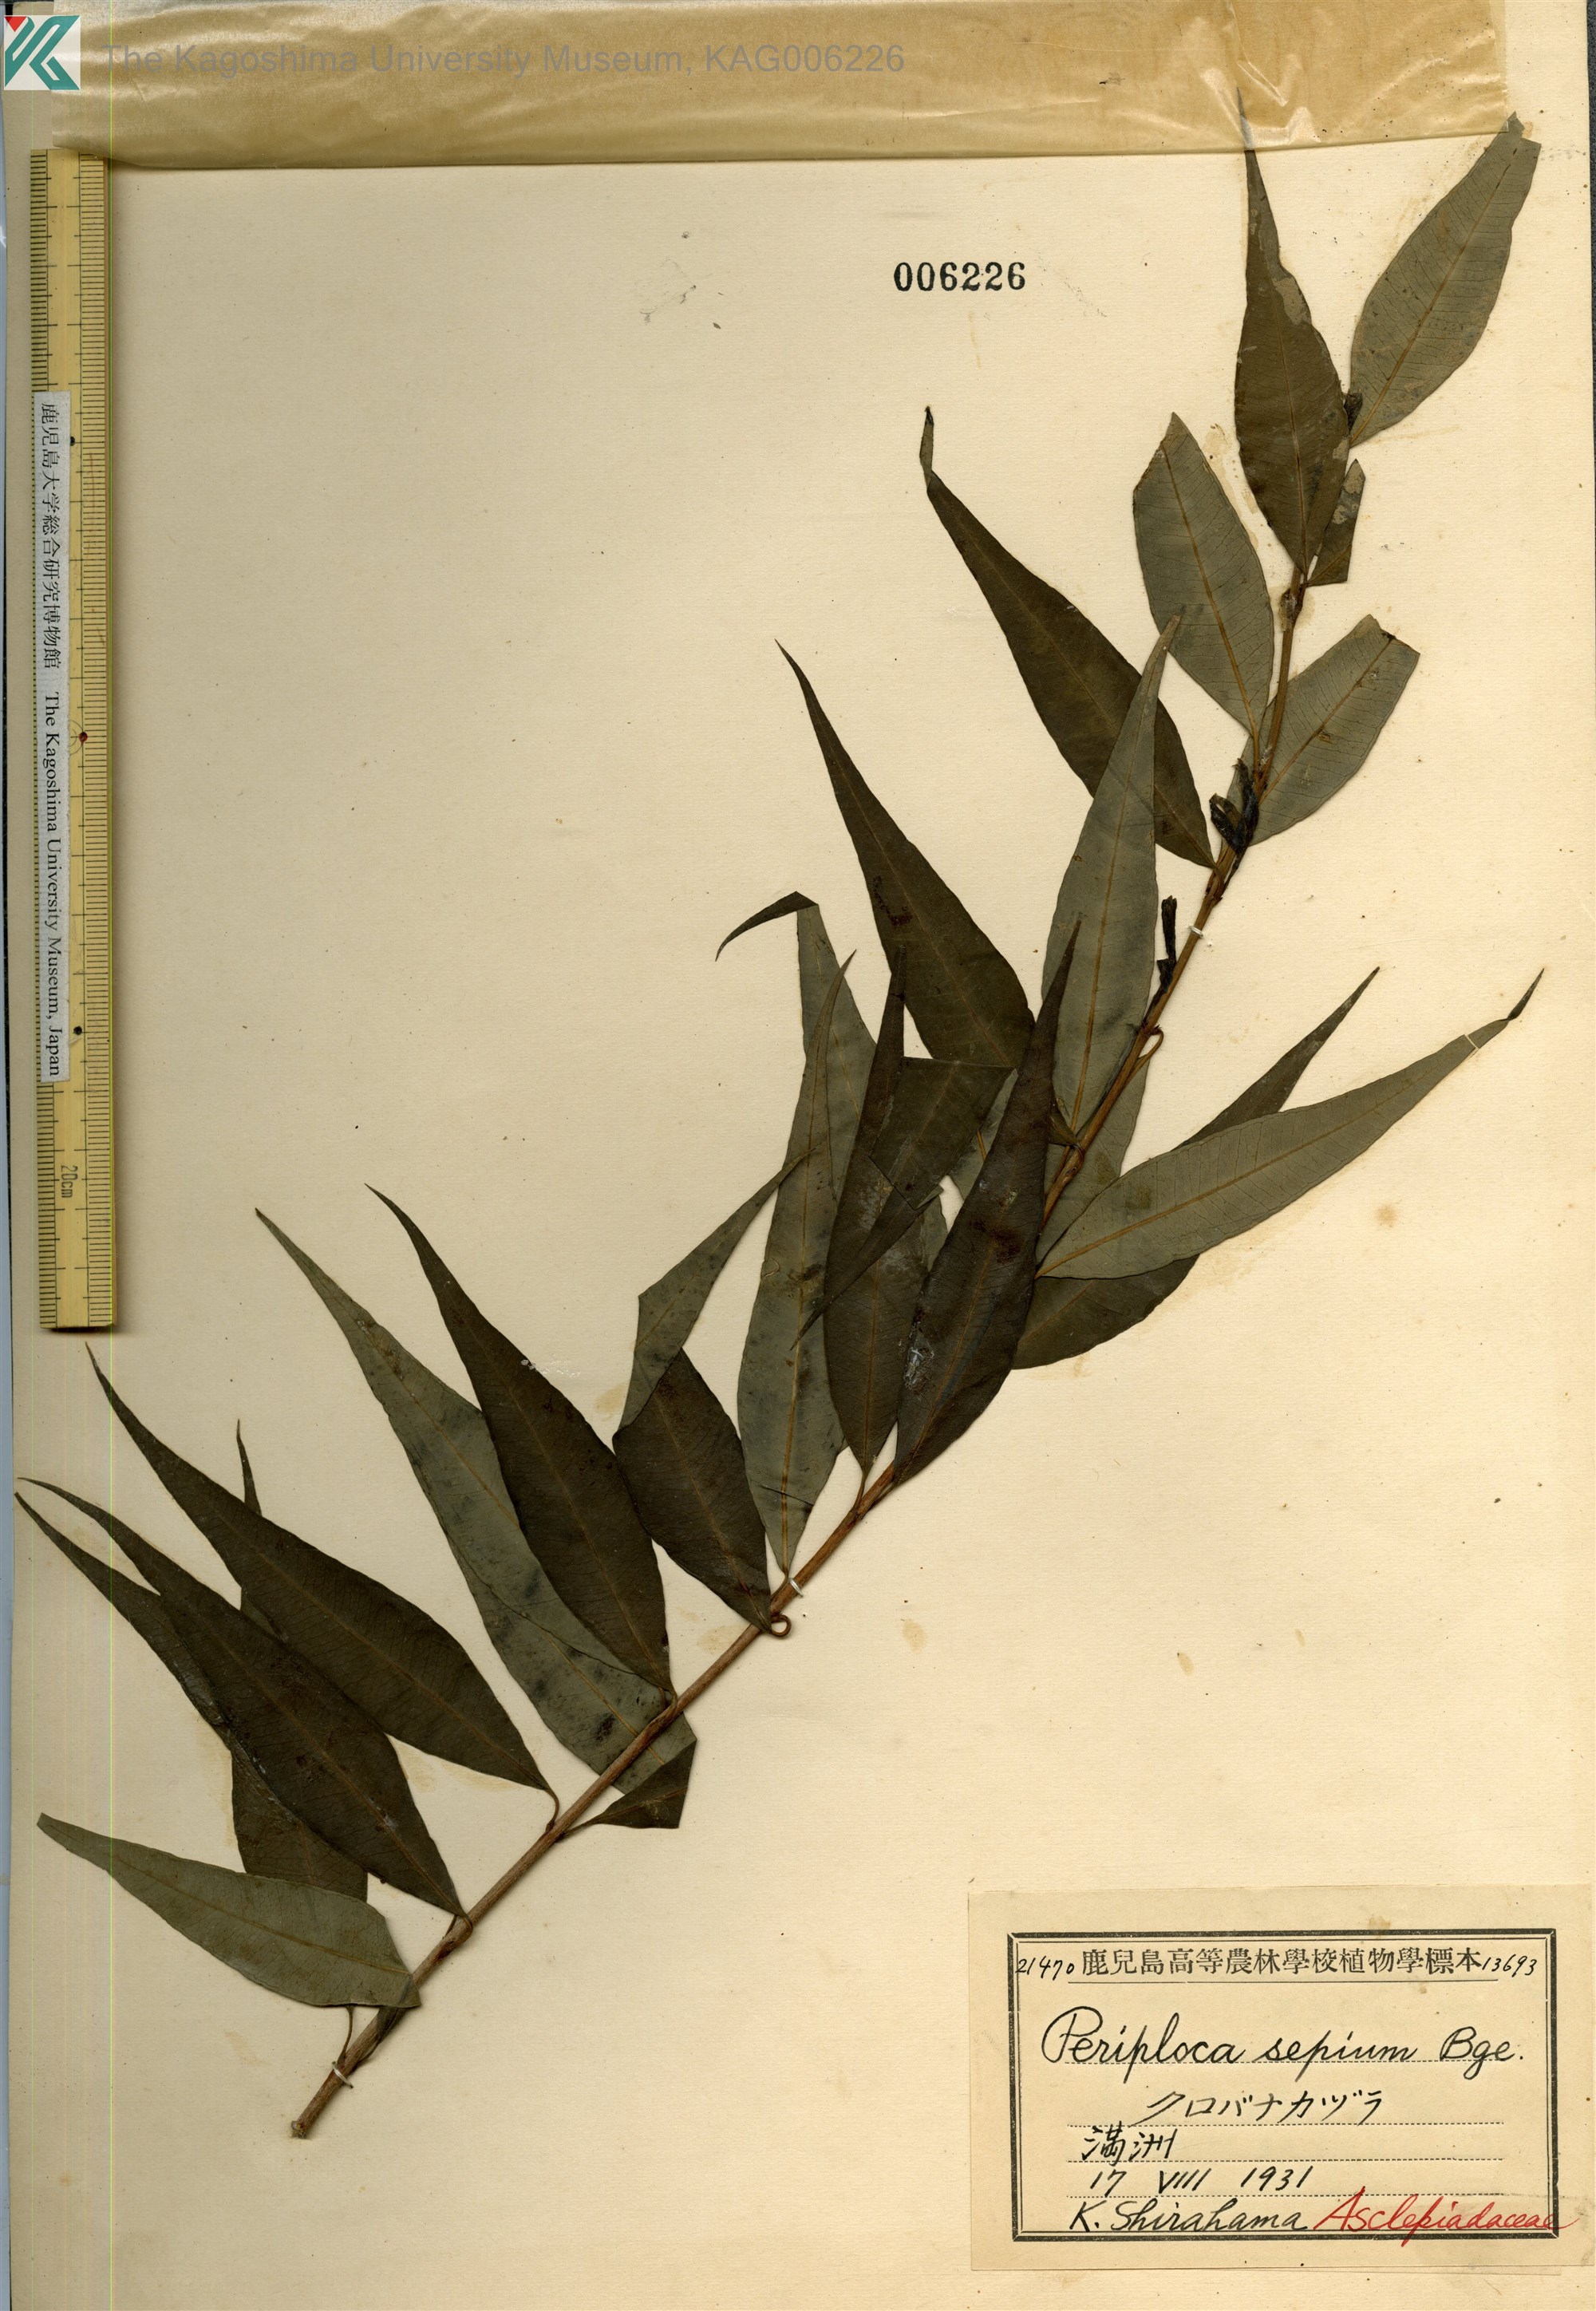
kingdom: Plantae
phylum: Tracheophyta
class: Magnoliopsida
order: Gentianales
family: Apocynaceae
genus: Periploca
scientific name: Periploca sepium
